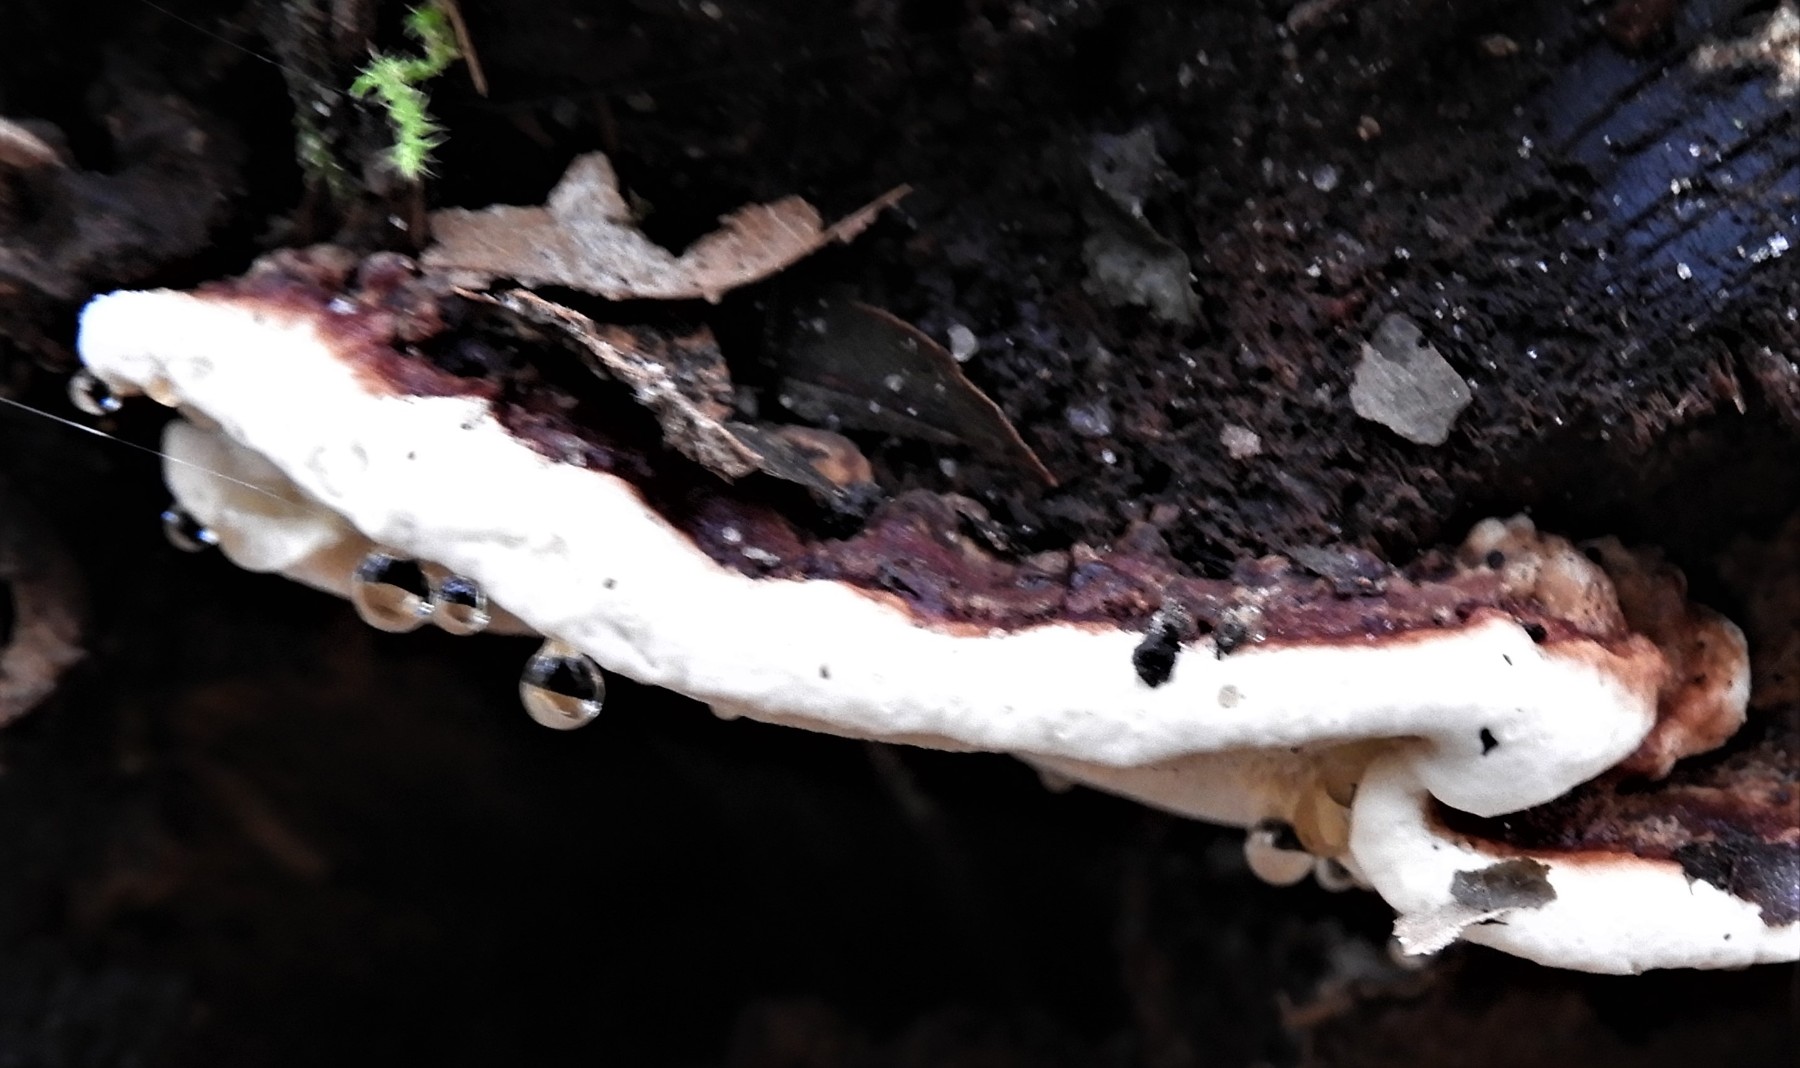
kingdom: Fungi
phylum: Basidiomycota
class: Agaricomycetes
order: Russulales
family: Bondarzewiaceae
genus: Heterobasidion
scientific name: Heterobasidion annosum
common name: almindelig rodfordærver
